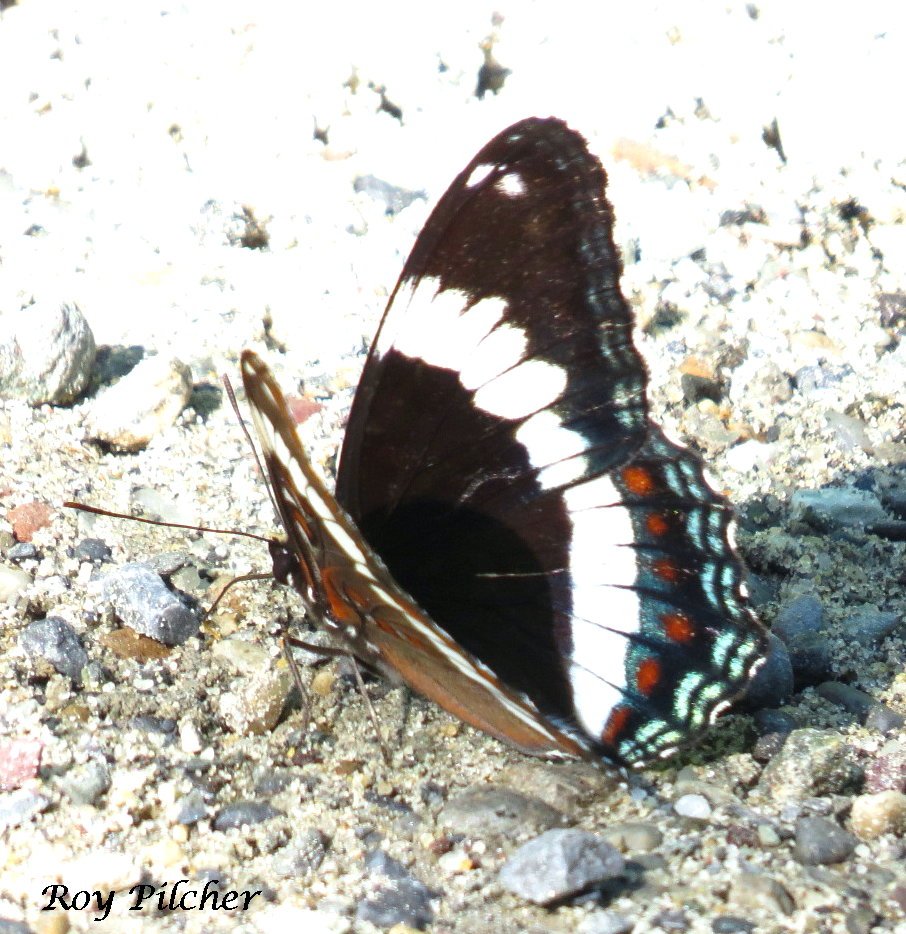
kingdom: Animalia
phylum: Arthropoda
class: Insecta
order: Lepidoptera
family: Nymphalidae
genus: Limenitis
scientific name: Limenitis
